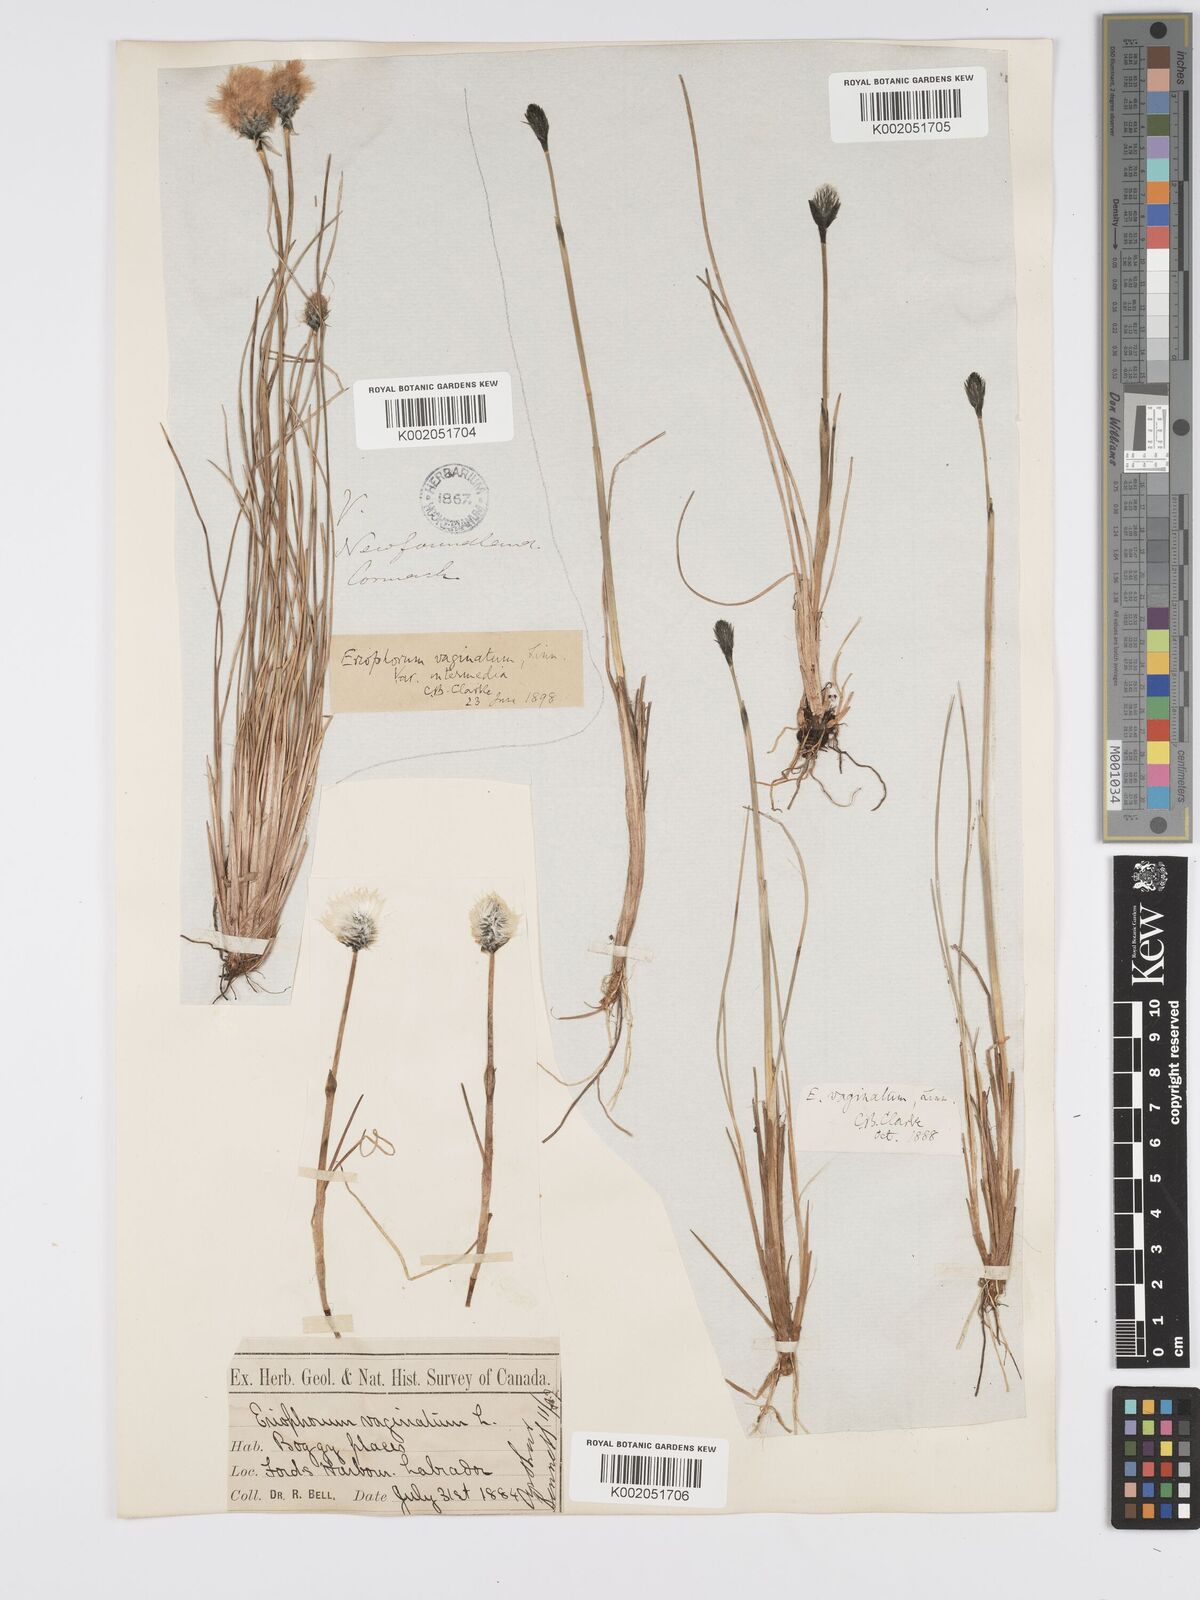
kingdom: Plantae
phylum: Tracheophyta
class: Liliopsida
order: Poales
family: Cyperaceae
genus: Eriophorum
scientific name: Eriophorum vaginatum
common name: Hare's-tail cottongrass
